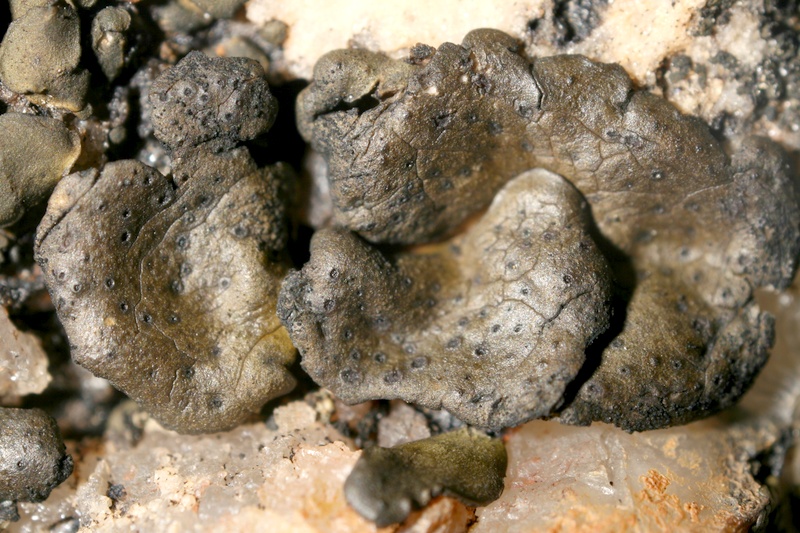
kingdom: Fungi
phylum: Ascomycota
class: Lichinomycetes
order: Lichinales
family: Peltulaceae
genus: Peltula
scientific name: Peltula coriacea
